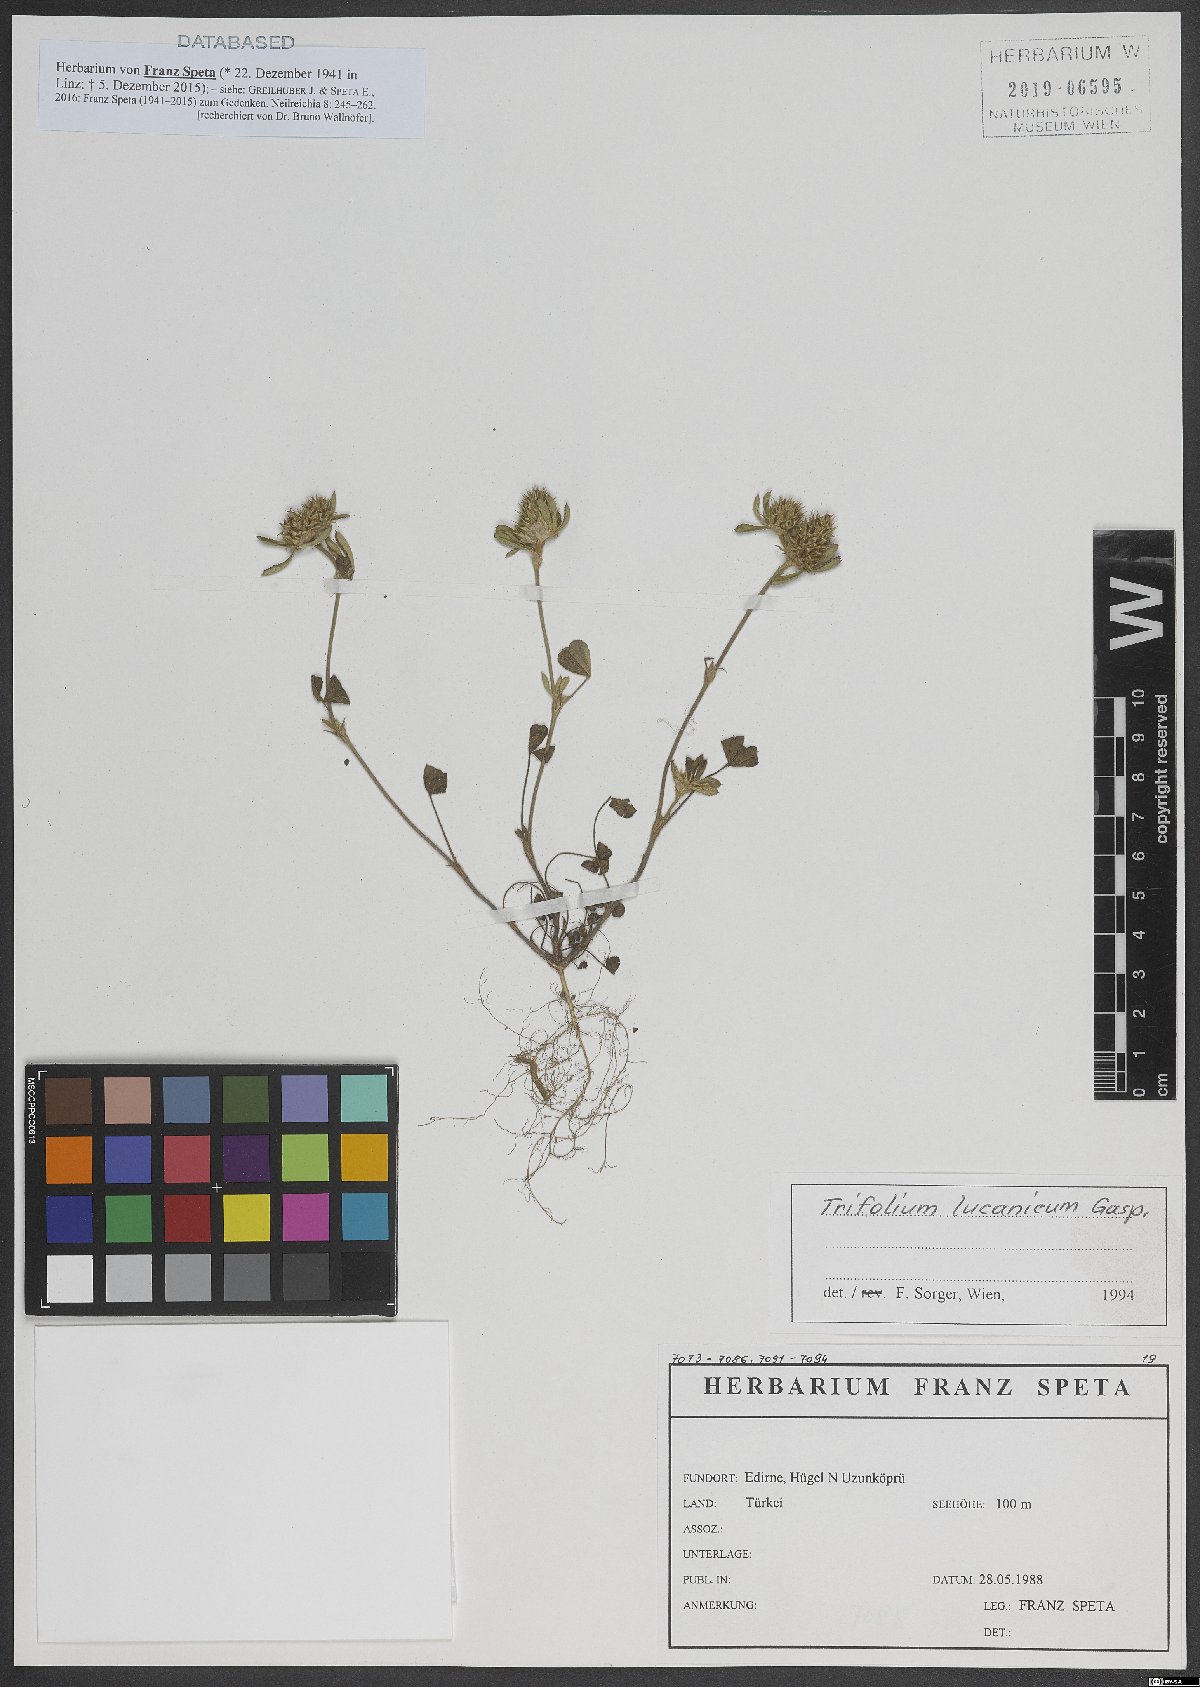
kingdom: Plantae
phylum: Tracheophyta
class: Magnoliopsida
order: Fabales
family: Fabaceae
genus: Trifolium
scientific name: Trifolium lucanicum
